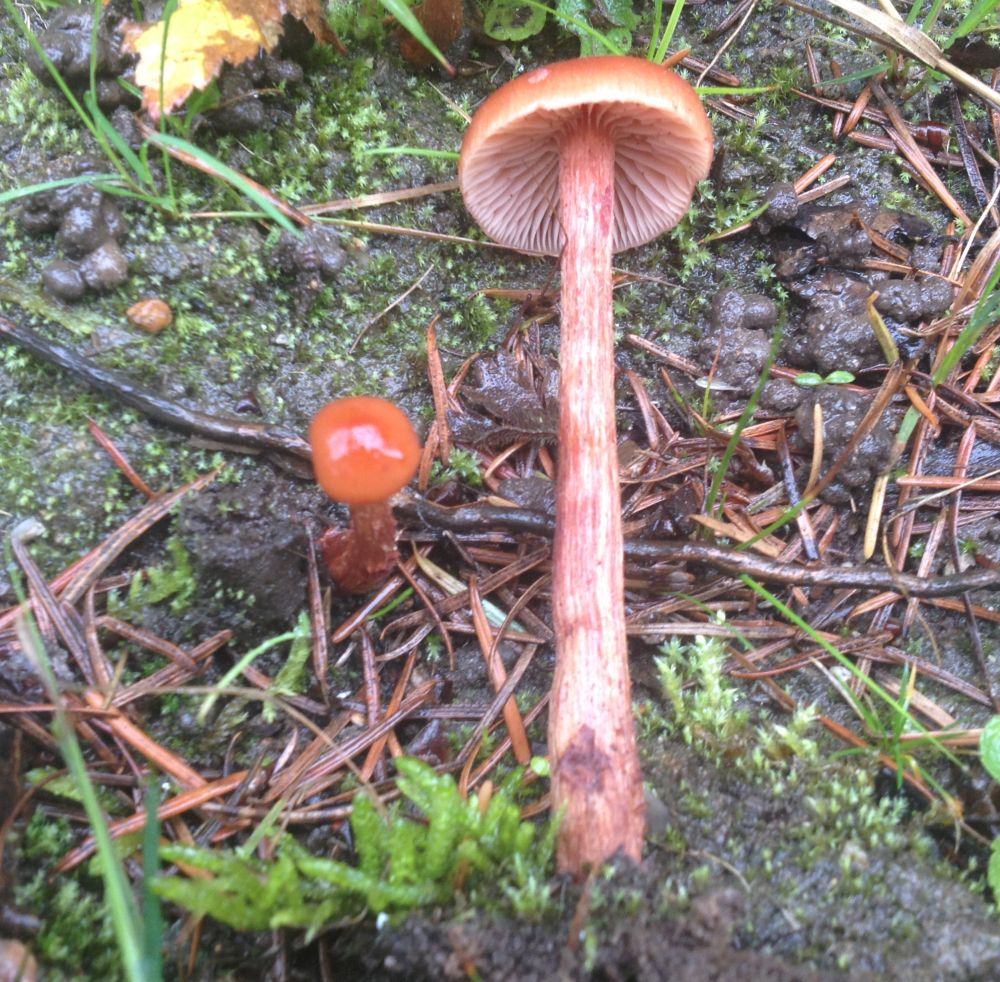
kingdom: Fungi
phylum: Basidiomycota
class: Agaricomycetes
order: Agaricales
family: Hydnangiaceae
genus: Laccaria
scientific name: Laccaria proxima
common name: stor ametysthat
